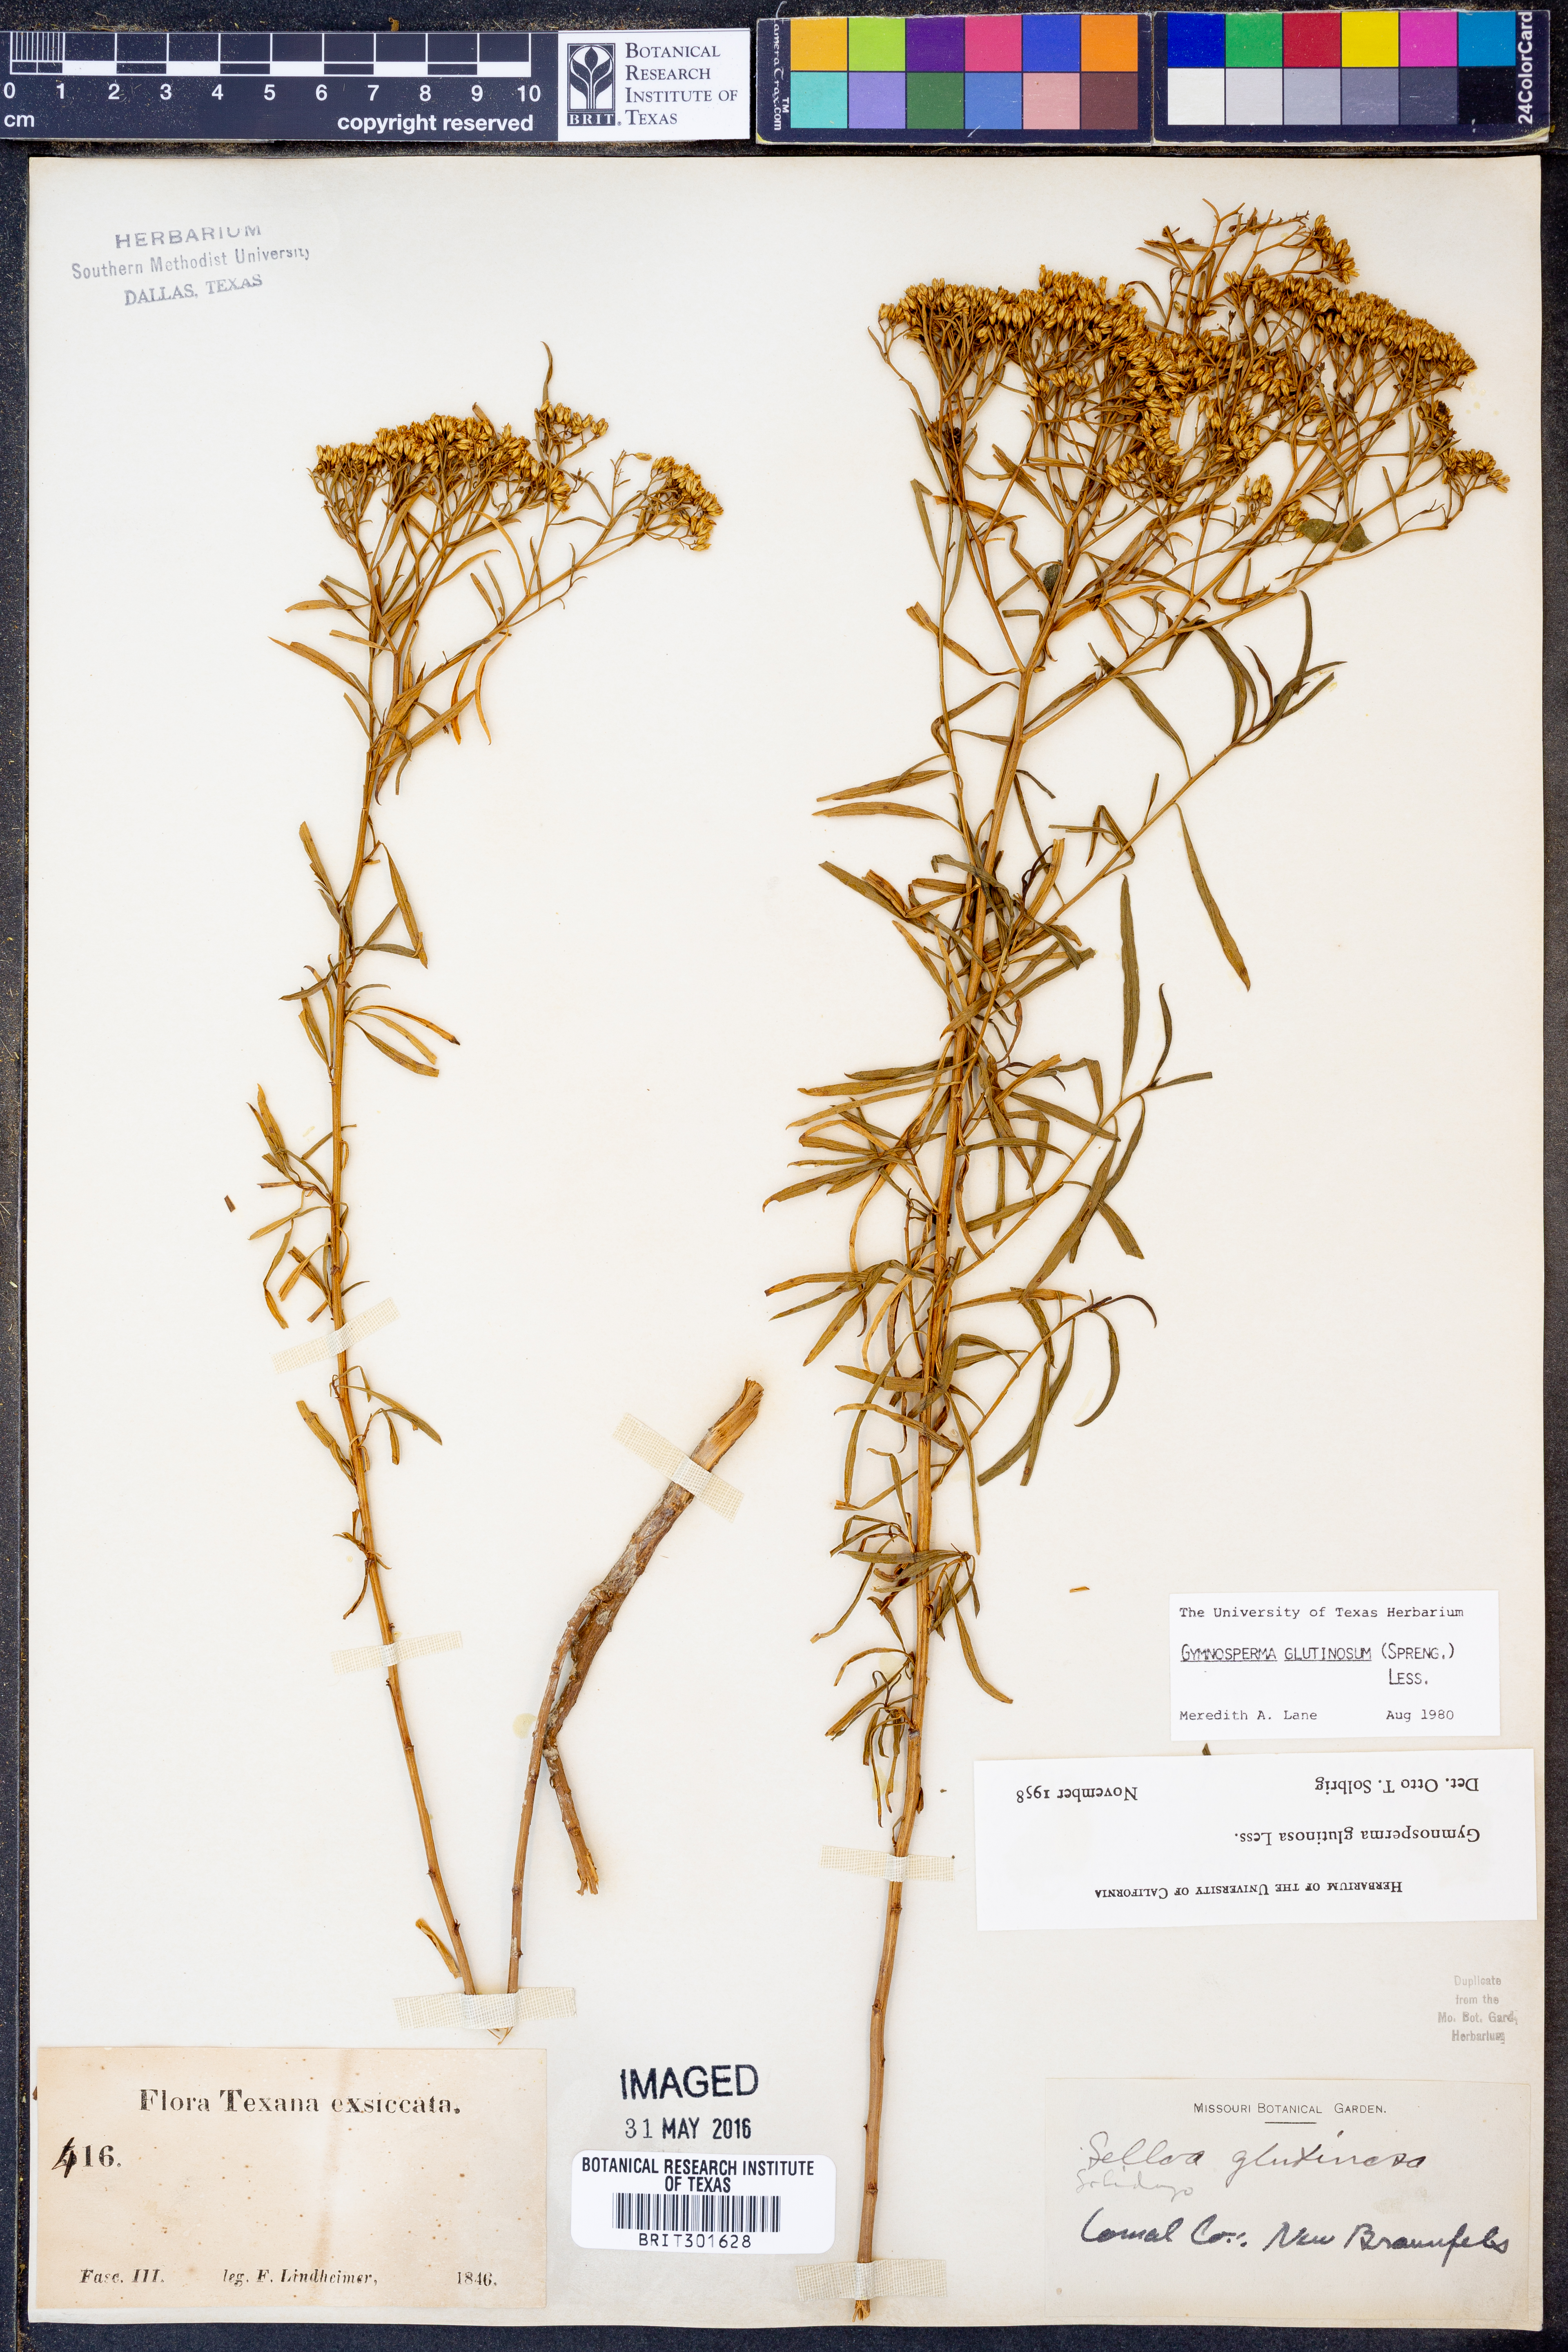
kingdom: Plantae
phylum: Tracheophyta
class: Magnoliopsida
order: Asterales
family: Asteraceae
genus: Gymnosperma
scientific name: Gymnosperma glutinosum
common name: Gumhead
